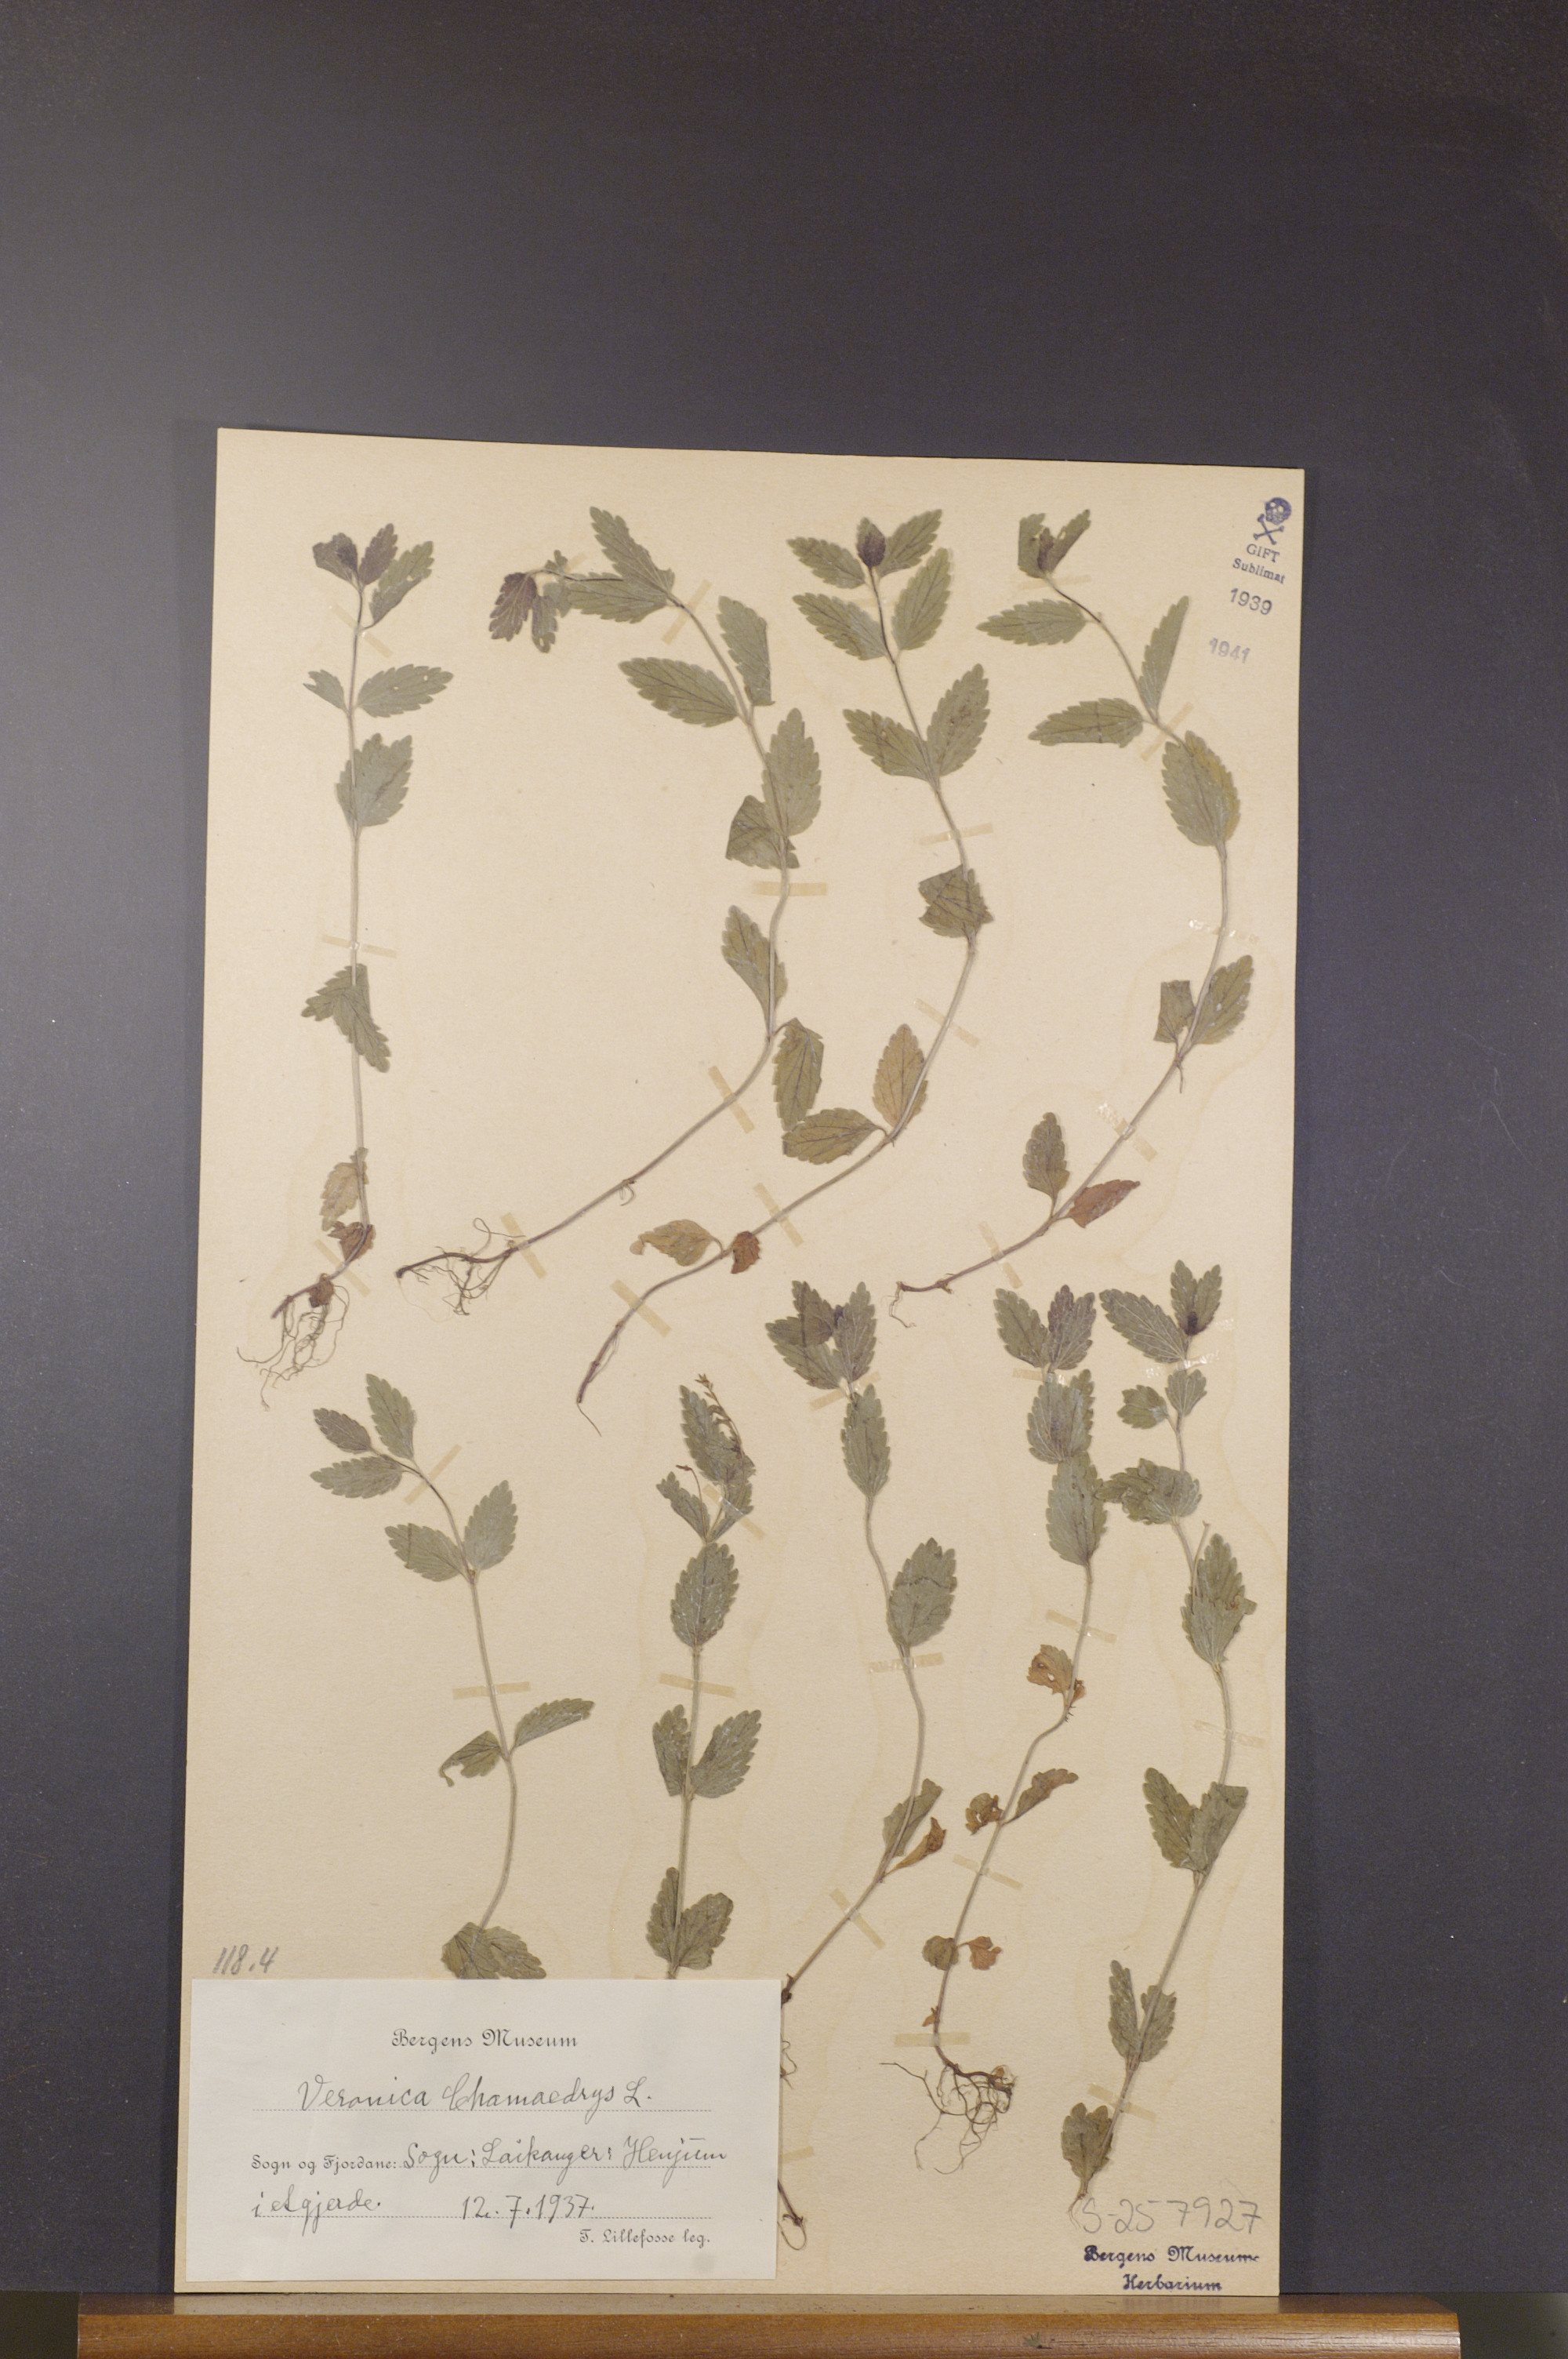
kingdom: Plantae
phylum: Tracheophyta
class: Magnoliopsida
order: Lamiales
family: Plantaginaceae
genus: Veronica
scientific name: Veronica chamaedrys
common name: Germander speedwell
